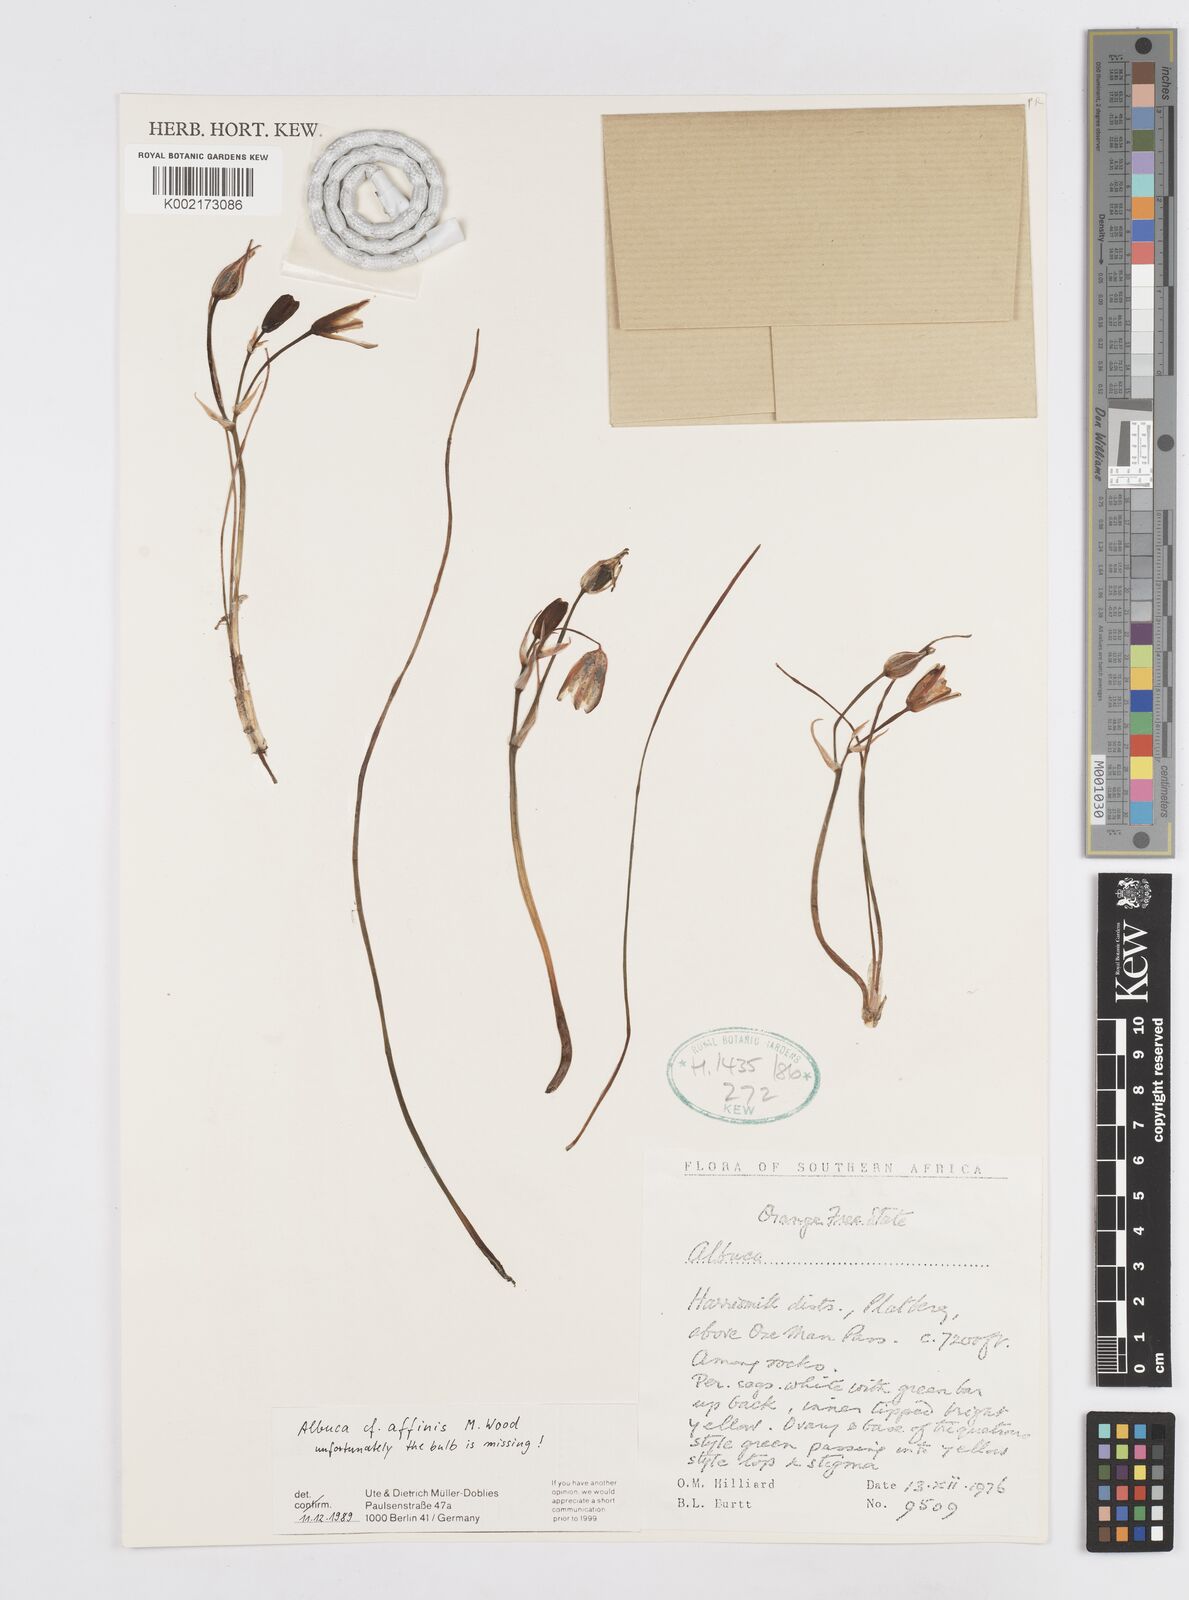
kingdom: Plantae
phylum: Tracheophyta
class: Liliopsida
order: Asparagales
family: Asparagaceae
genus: Ornithogalum
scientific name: Ornithogalum simile
